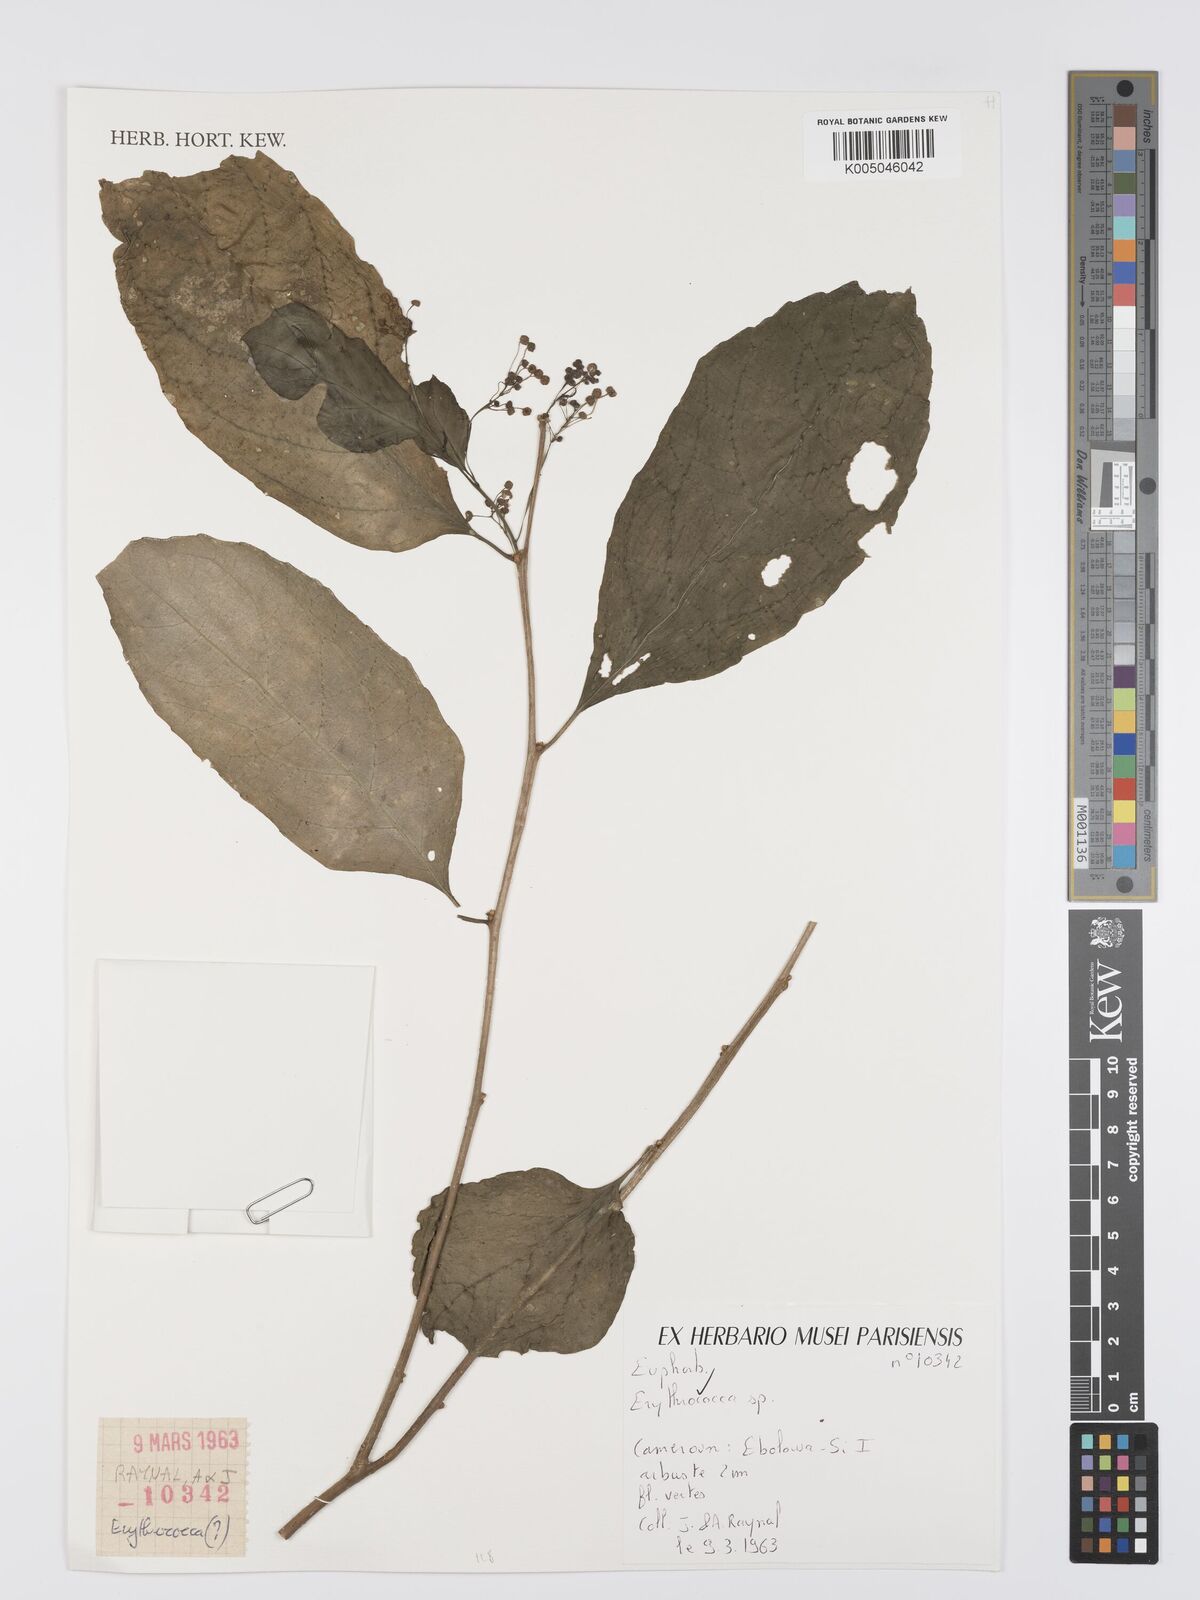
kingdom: Plantae
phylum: Tracheophyta
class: Magnoliopsida
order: Malpighiales
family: Euphorbiaceae
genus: Erythrococca
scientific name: Erythrococca
